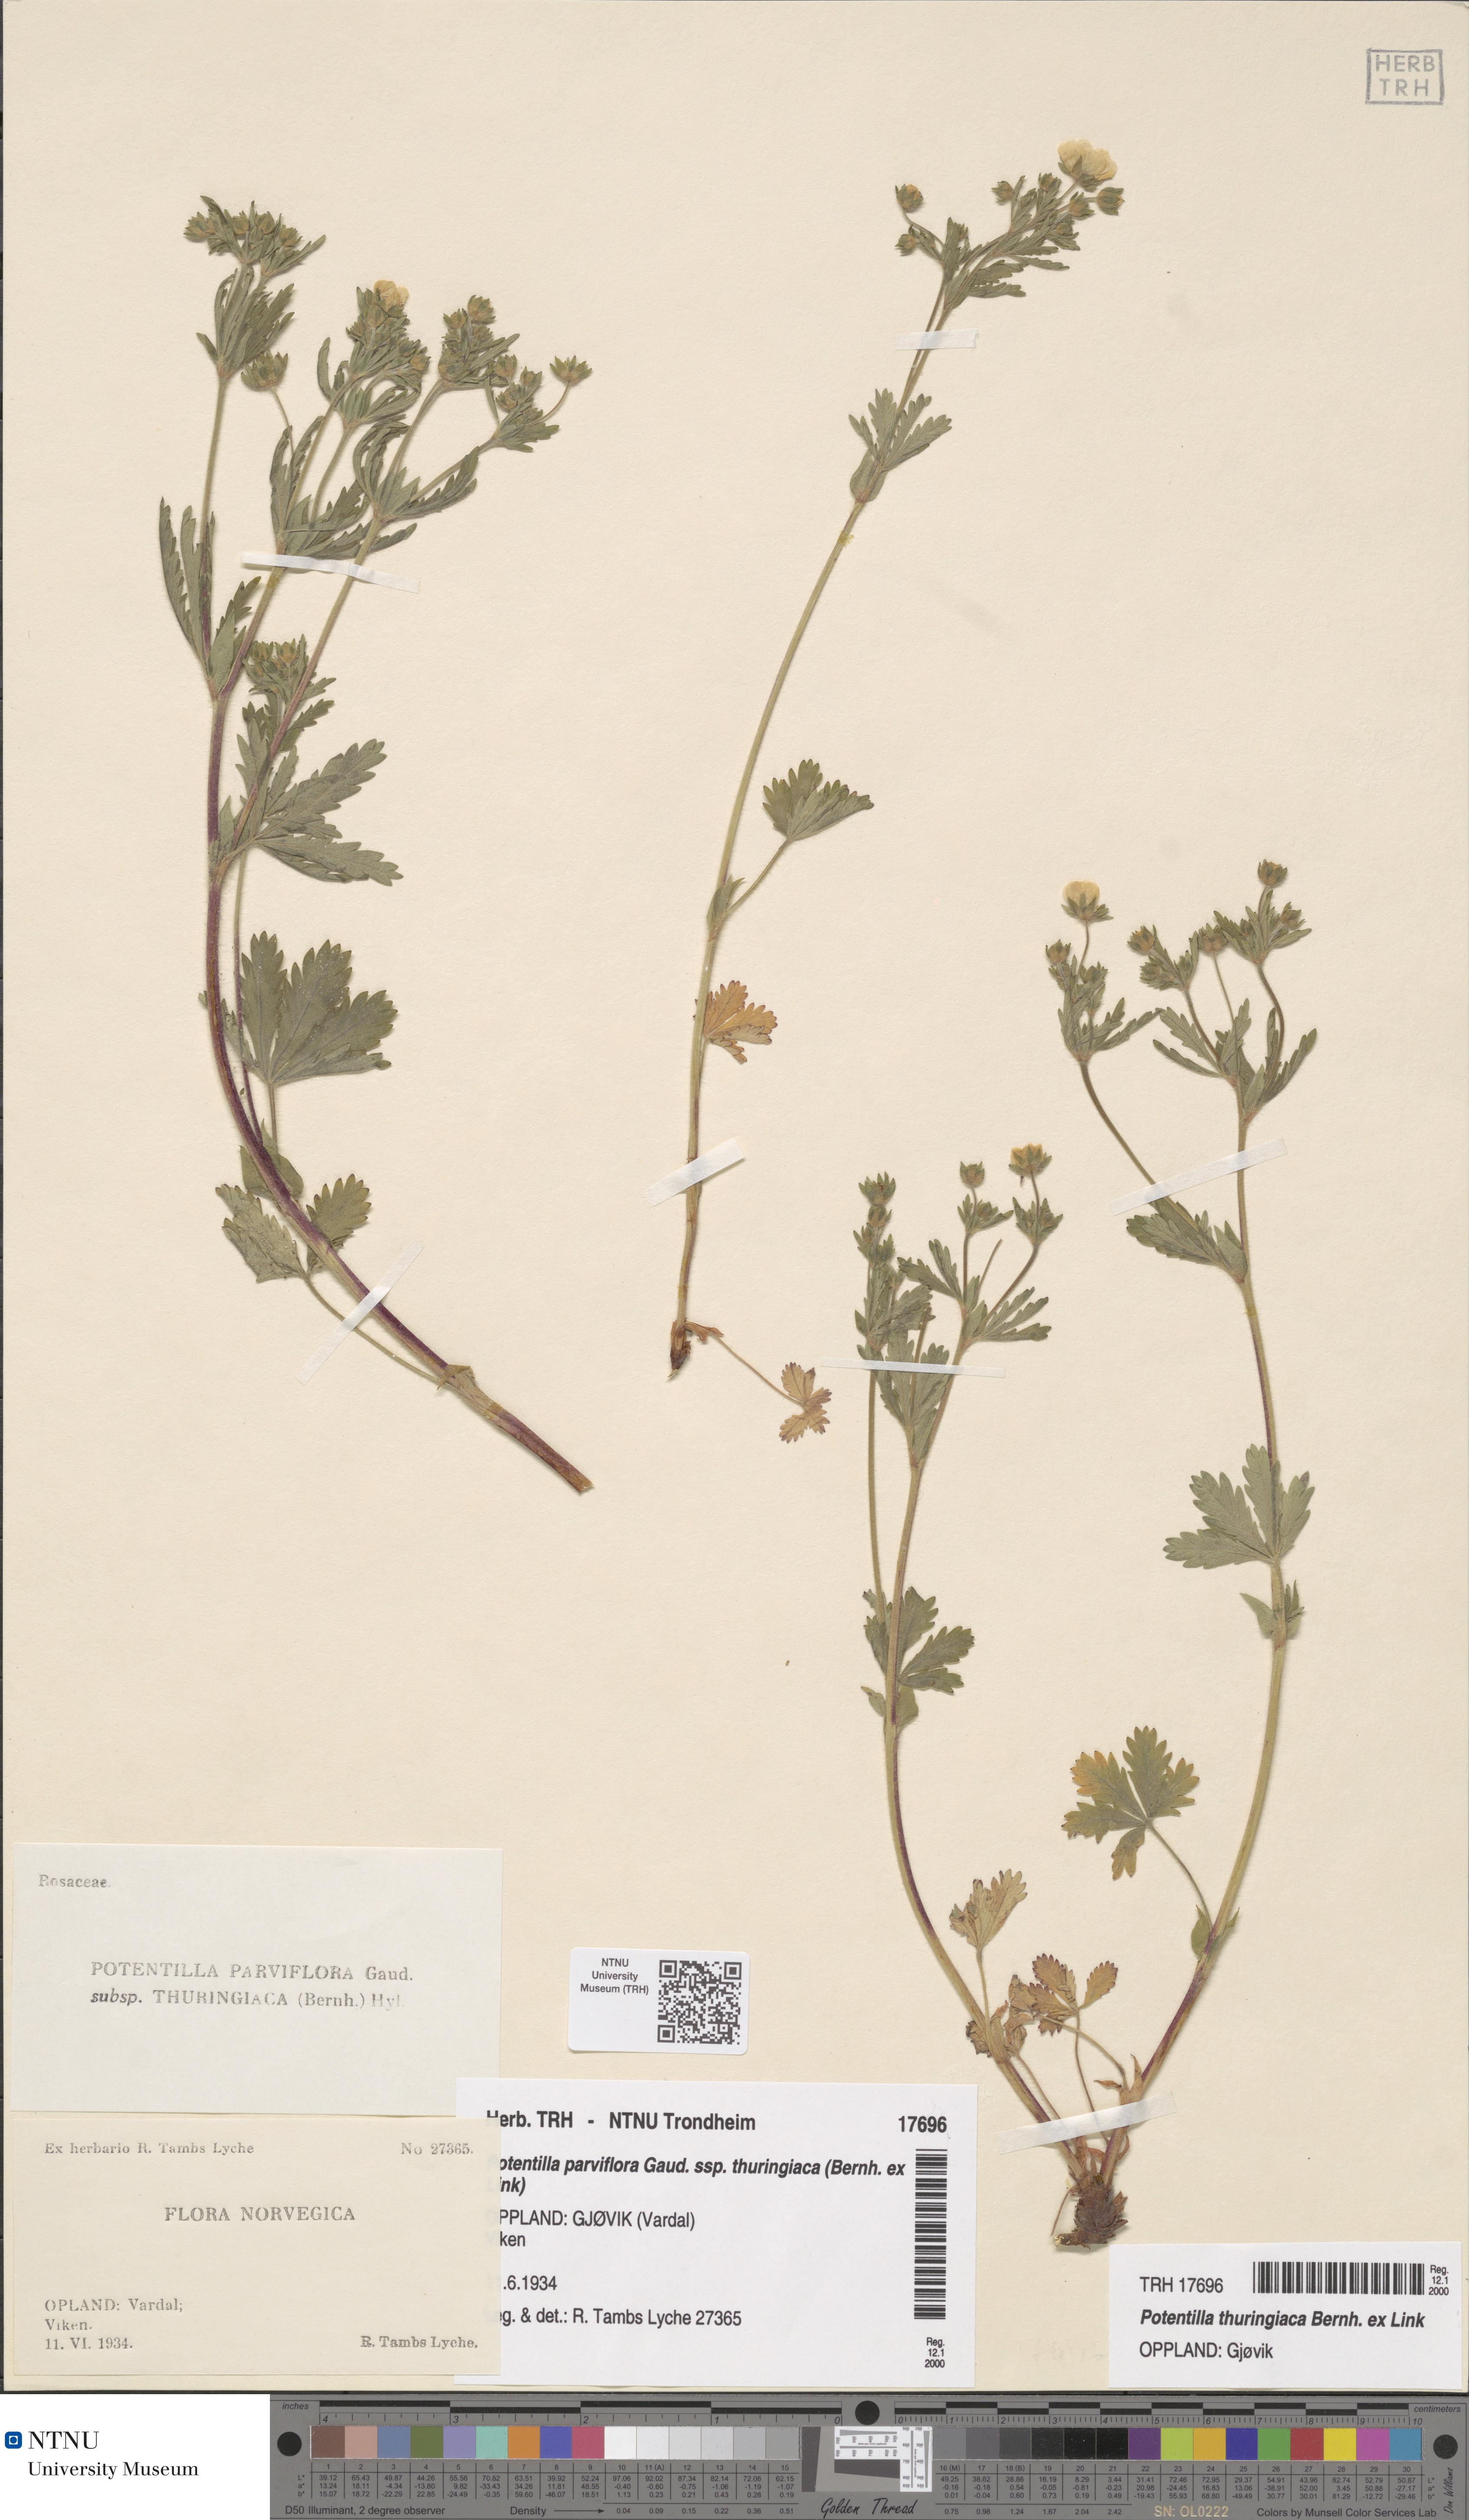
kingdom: Plantae
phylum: Tracheophyta
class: Magnoliopsida
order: Rosales
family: Rosaceae
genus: Potentilla
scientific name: Potentilla thuringiaca
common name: European cinquefoil
